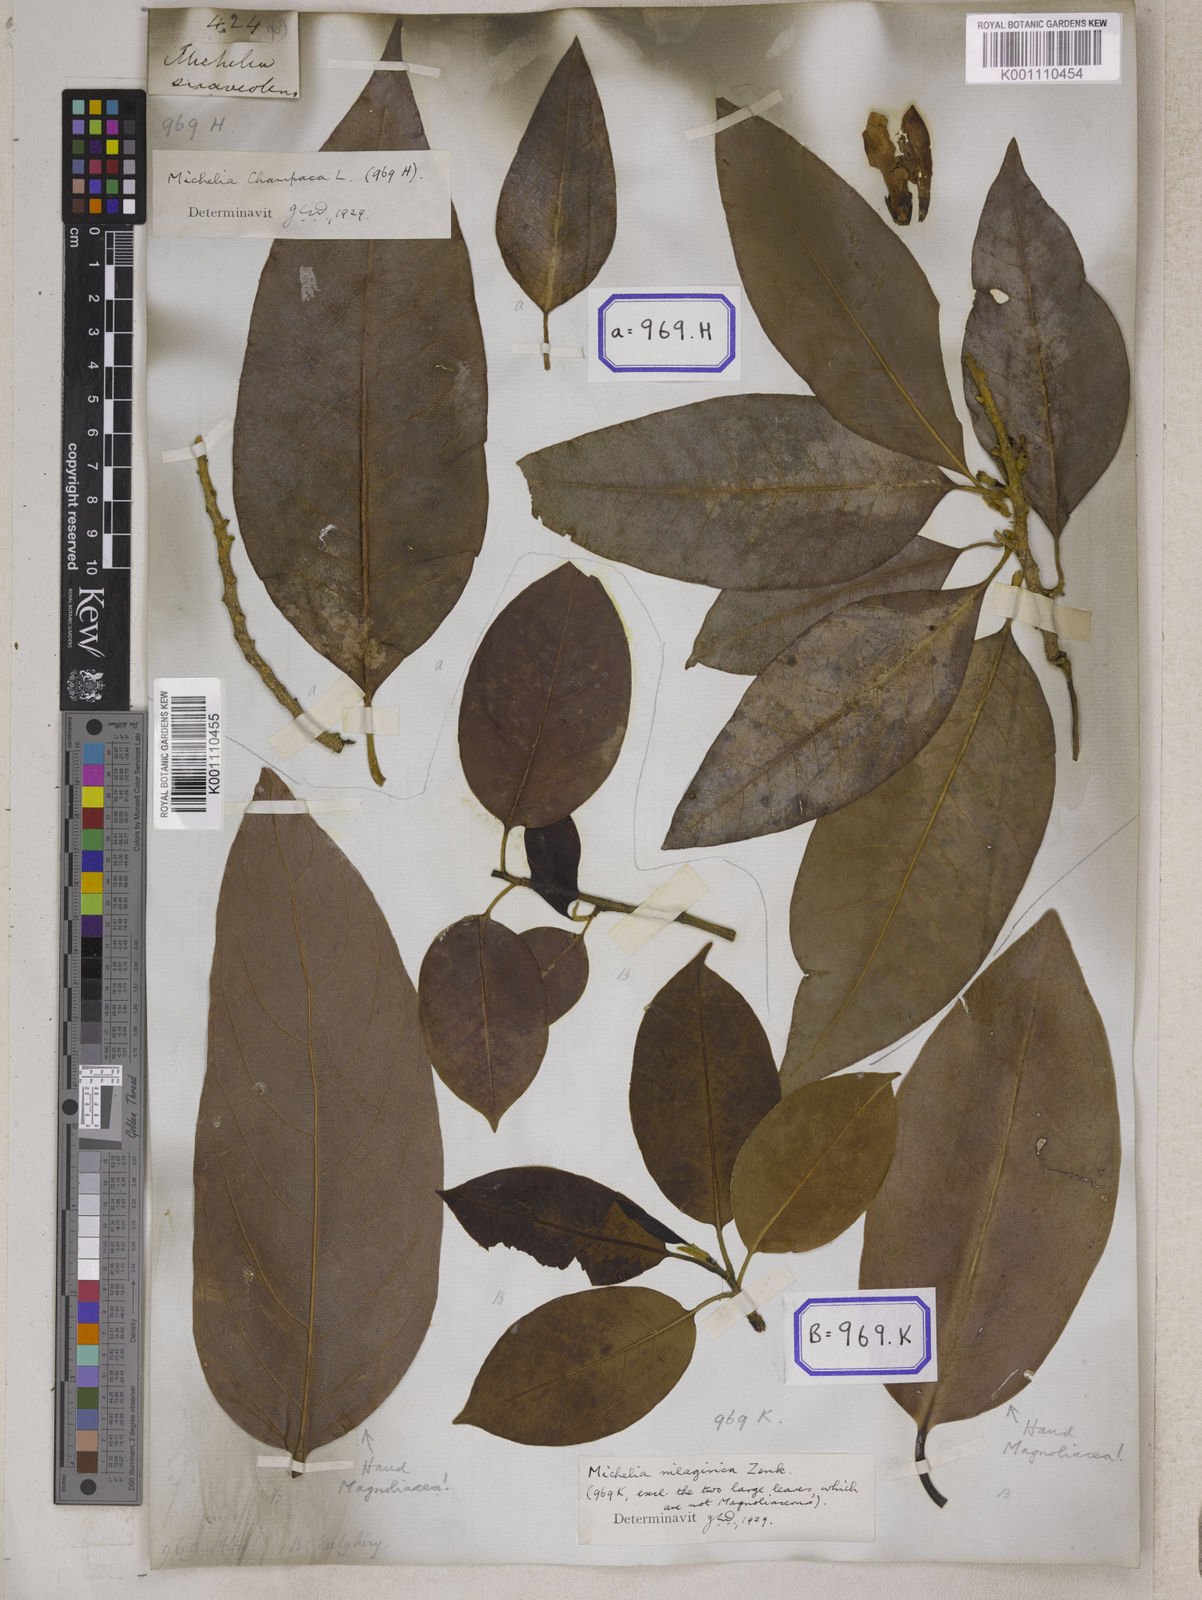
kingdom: Plantae
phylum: Tracheophyta
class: Magnoliopsida
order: Magnoliales
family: Magnoliaceae
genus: Magnolia
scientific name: Magnolia champaca
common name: Champak
